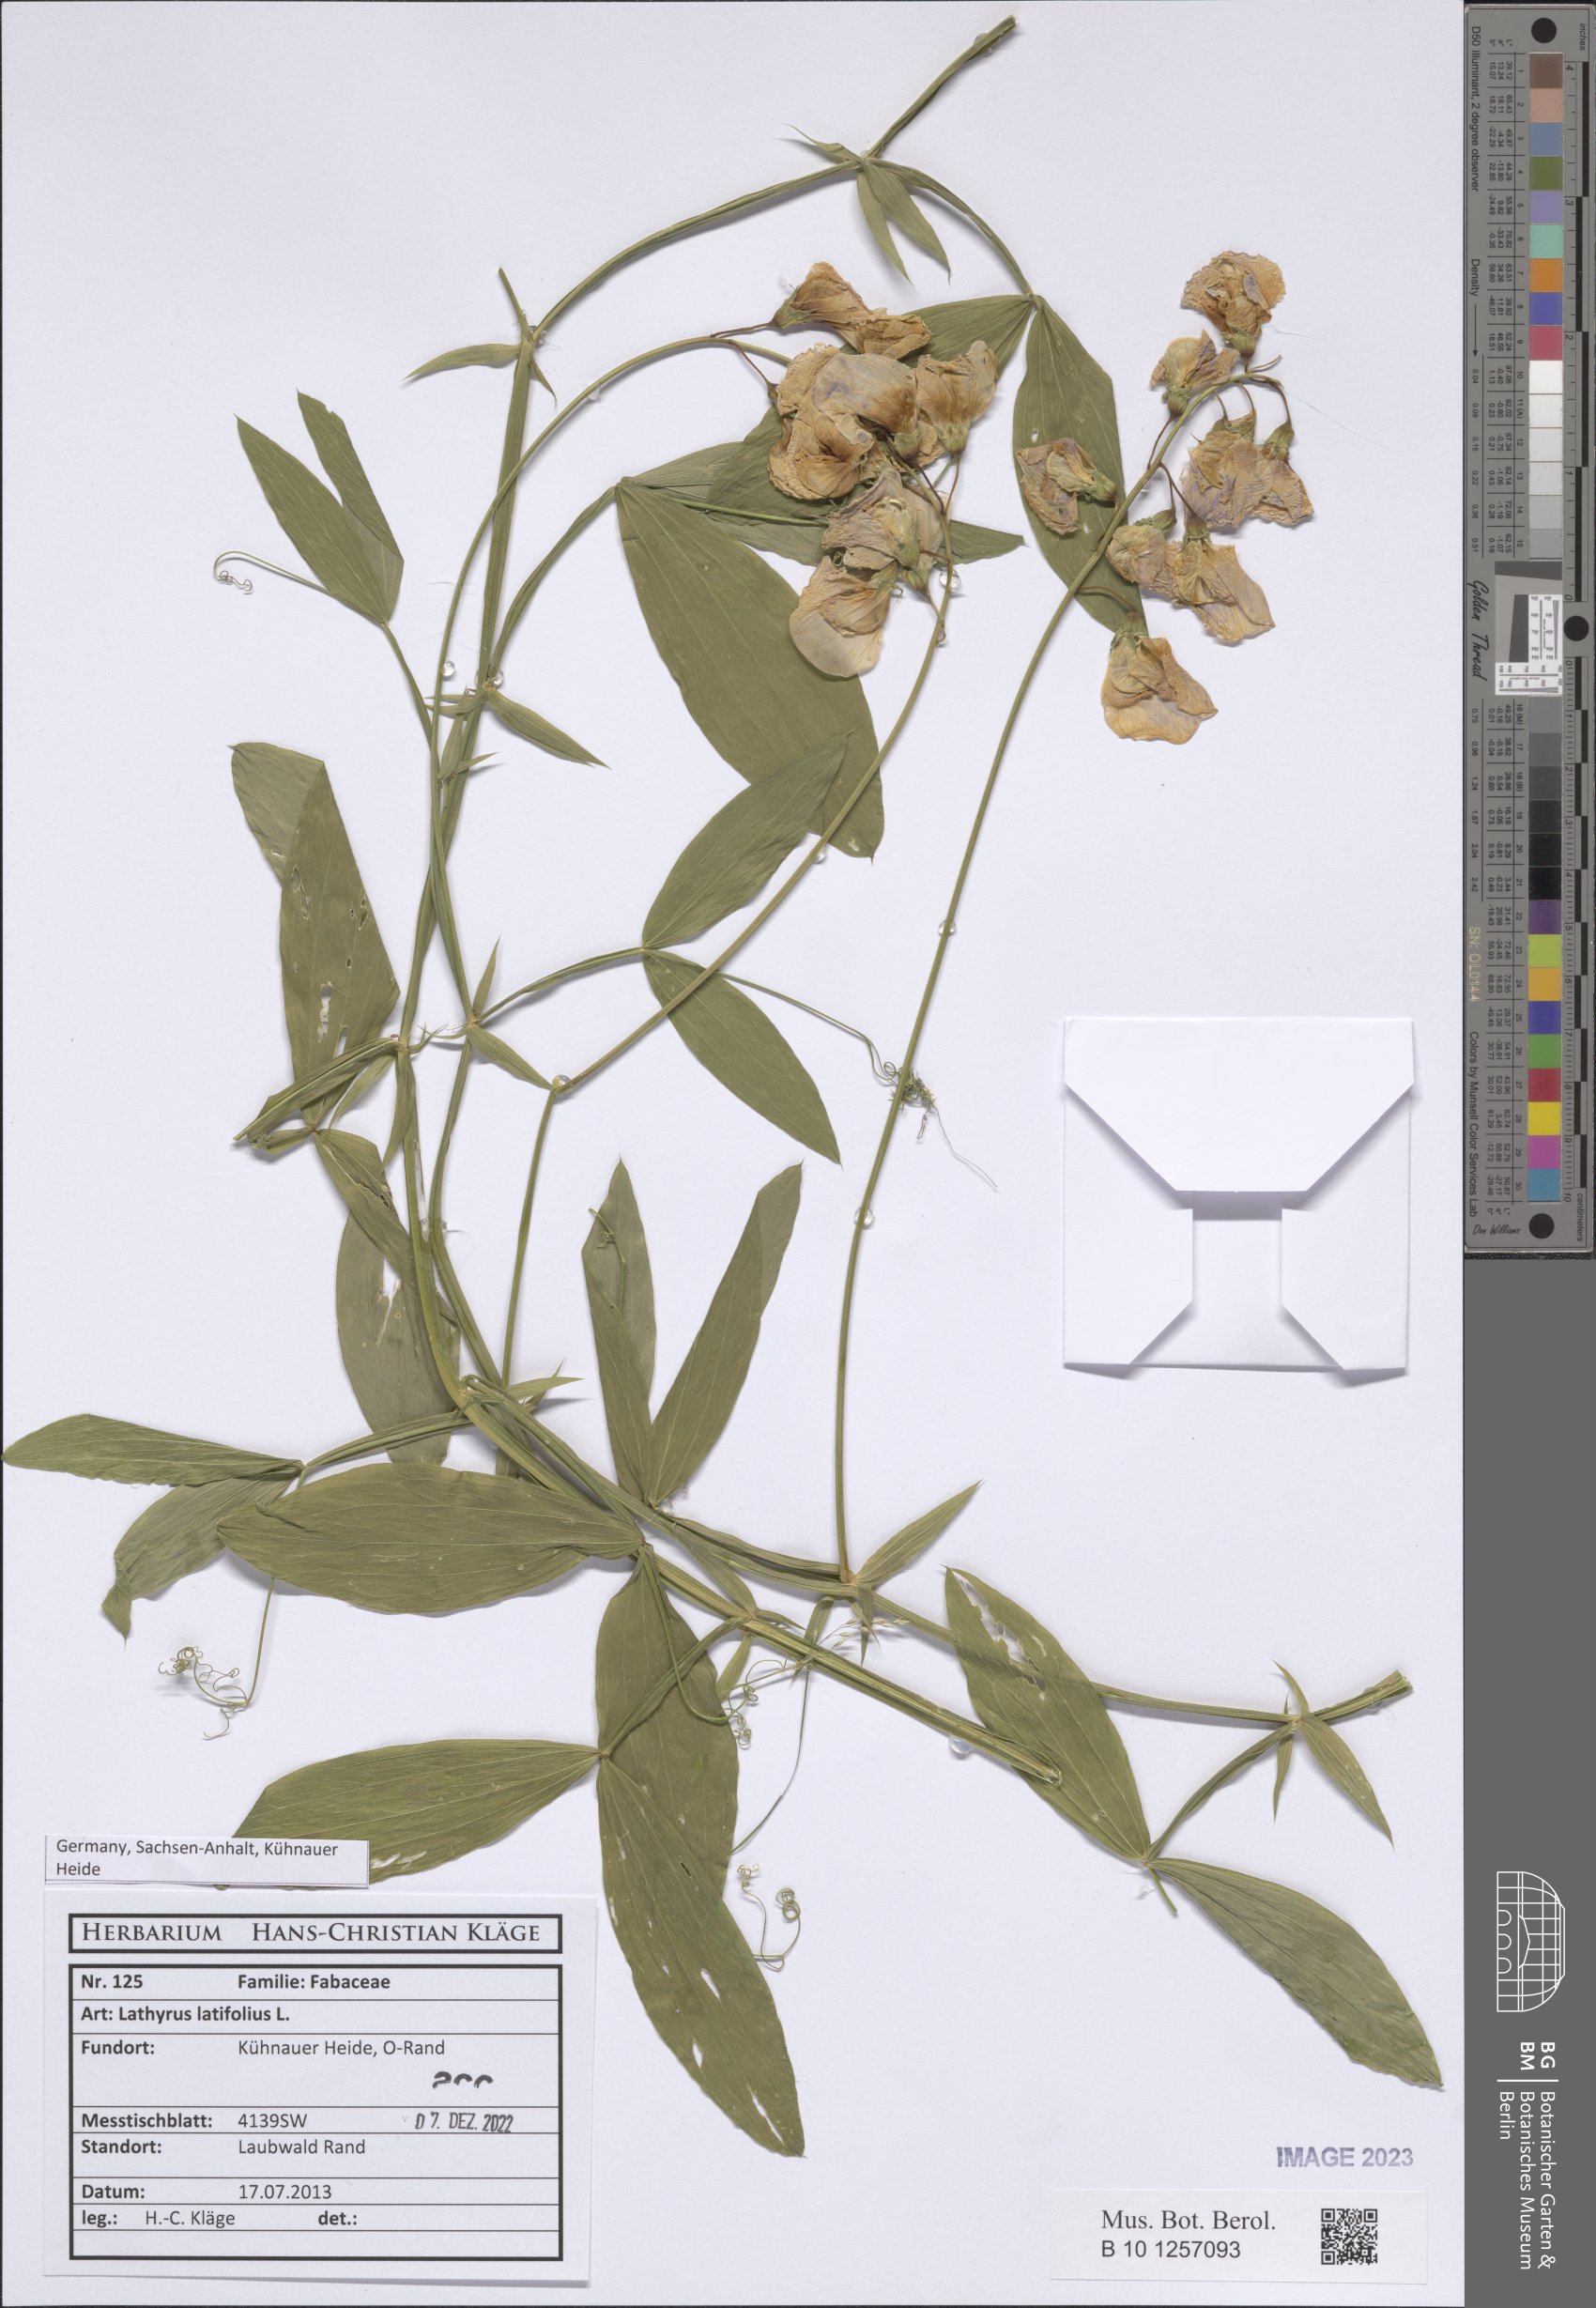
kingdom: Plantae
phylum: Tracheophyta
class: Magnoliopsida
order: Fabales
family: Fabaceae
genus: Lathyrus
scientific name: Lathyrus latifolius
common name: Perennial pea
